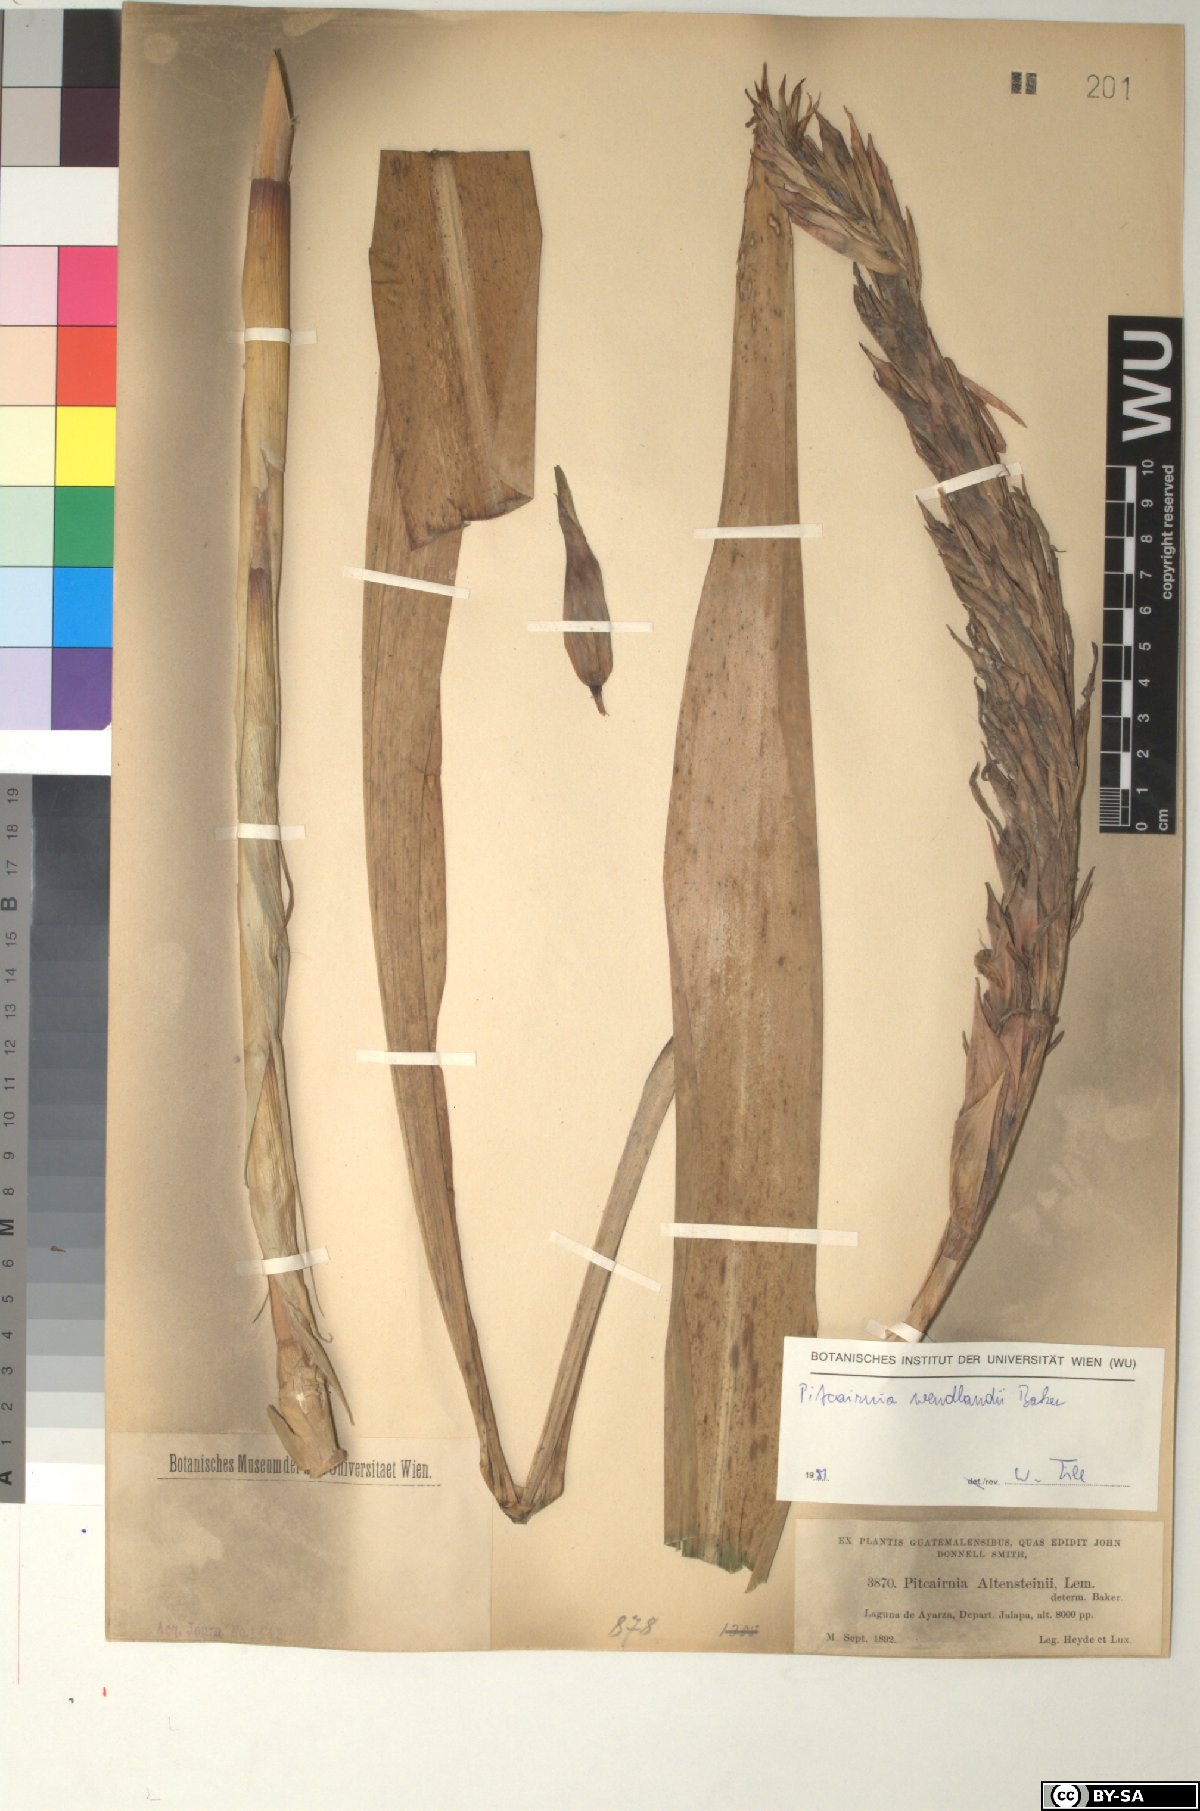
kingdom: Plantae
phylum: Tracheophyta
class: Liliopsida
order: Poales
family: Bromeliaceae
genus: Pitcairnia
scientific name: Pitcairnia wendlandii
